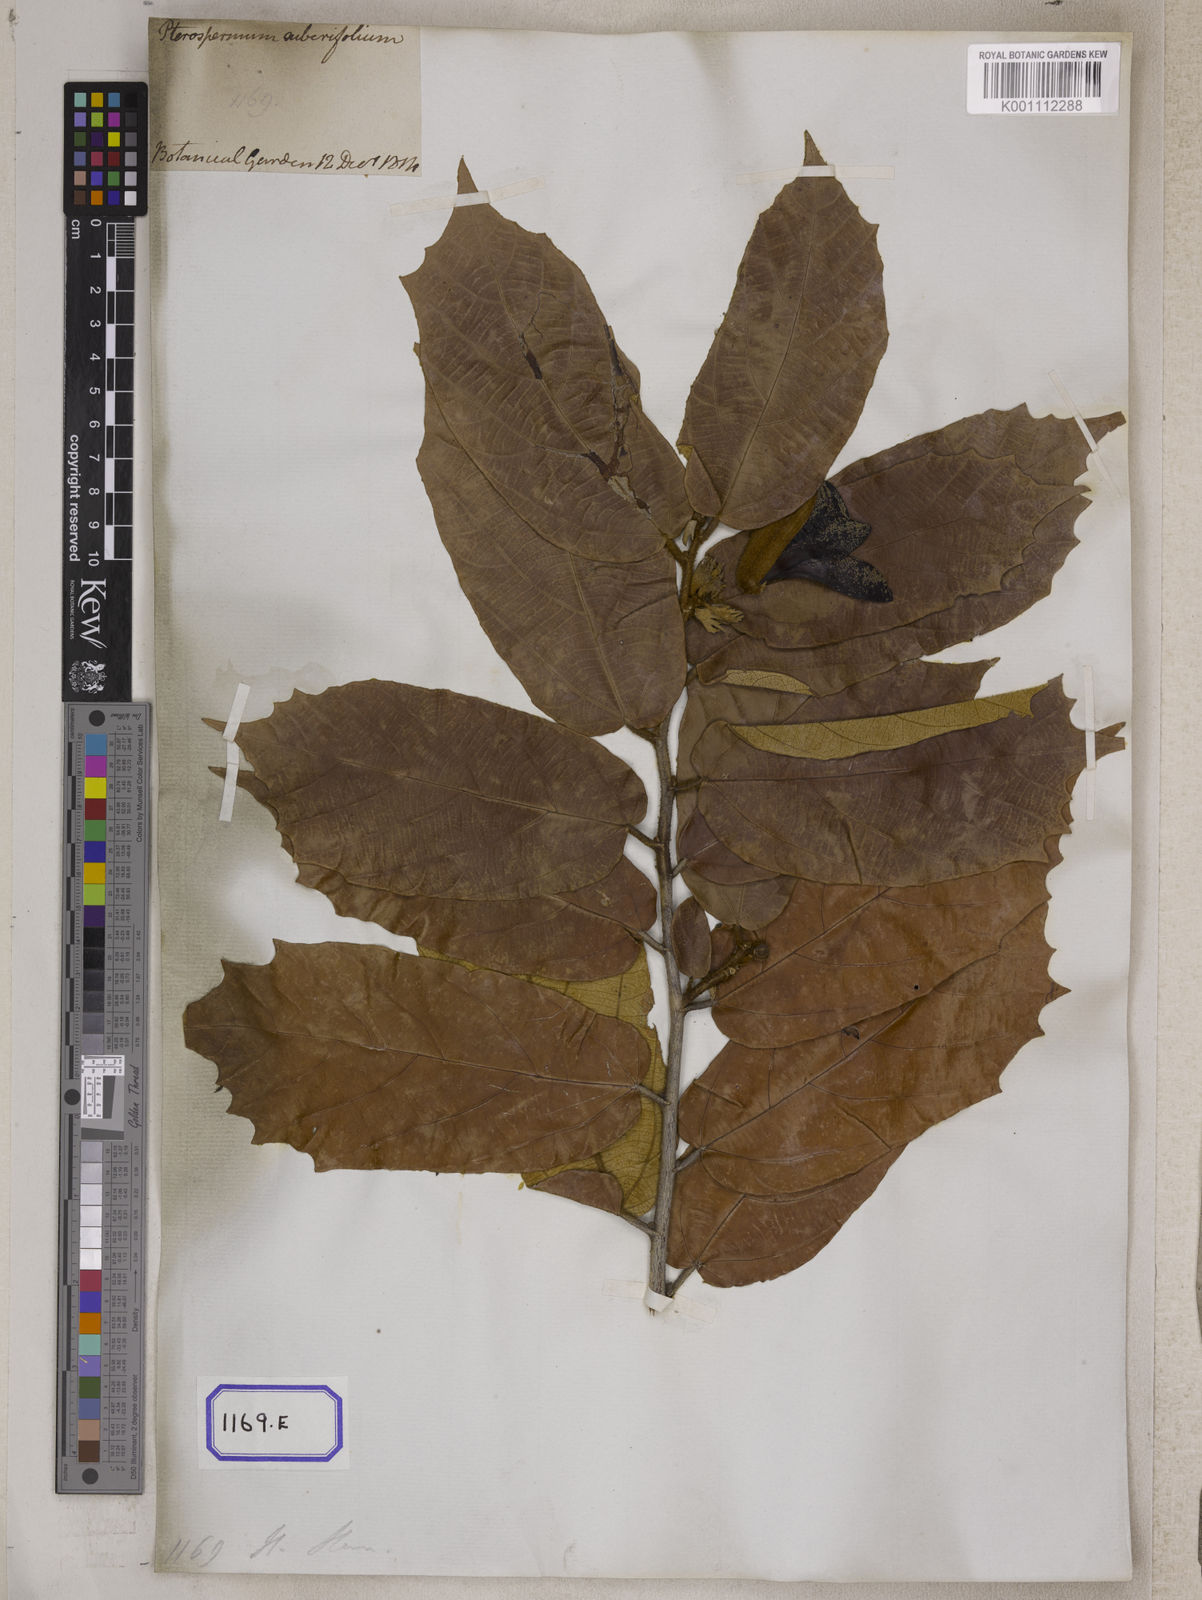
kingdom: Plantae
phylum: Tracheophyta
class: Magnoliopsida
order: Malvales
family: Malvaceae
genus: Pterospermum
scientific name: Pterospermum
